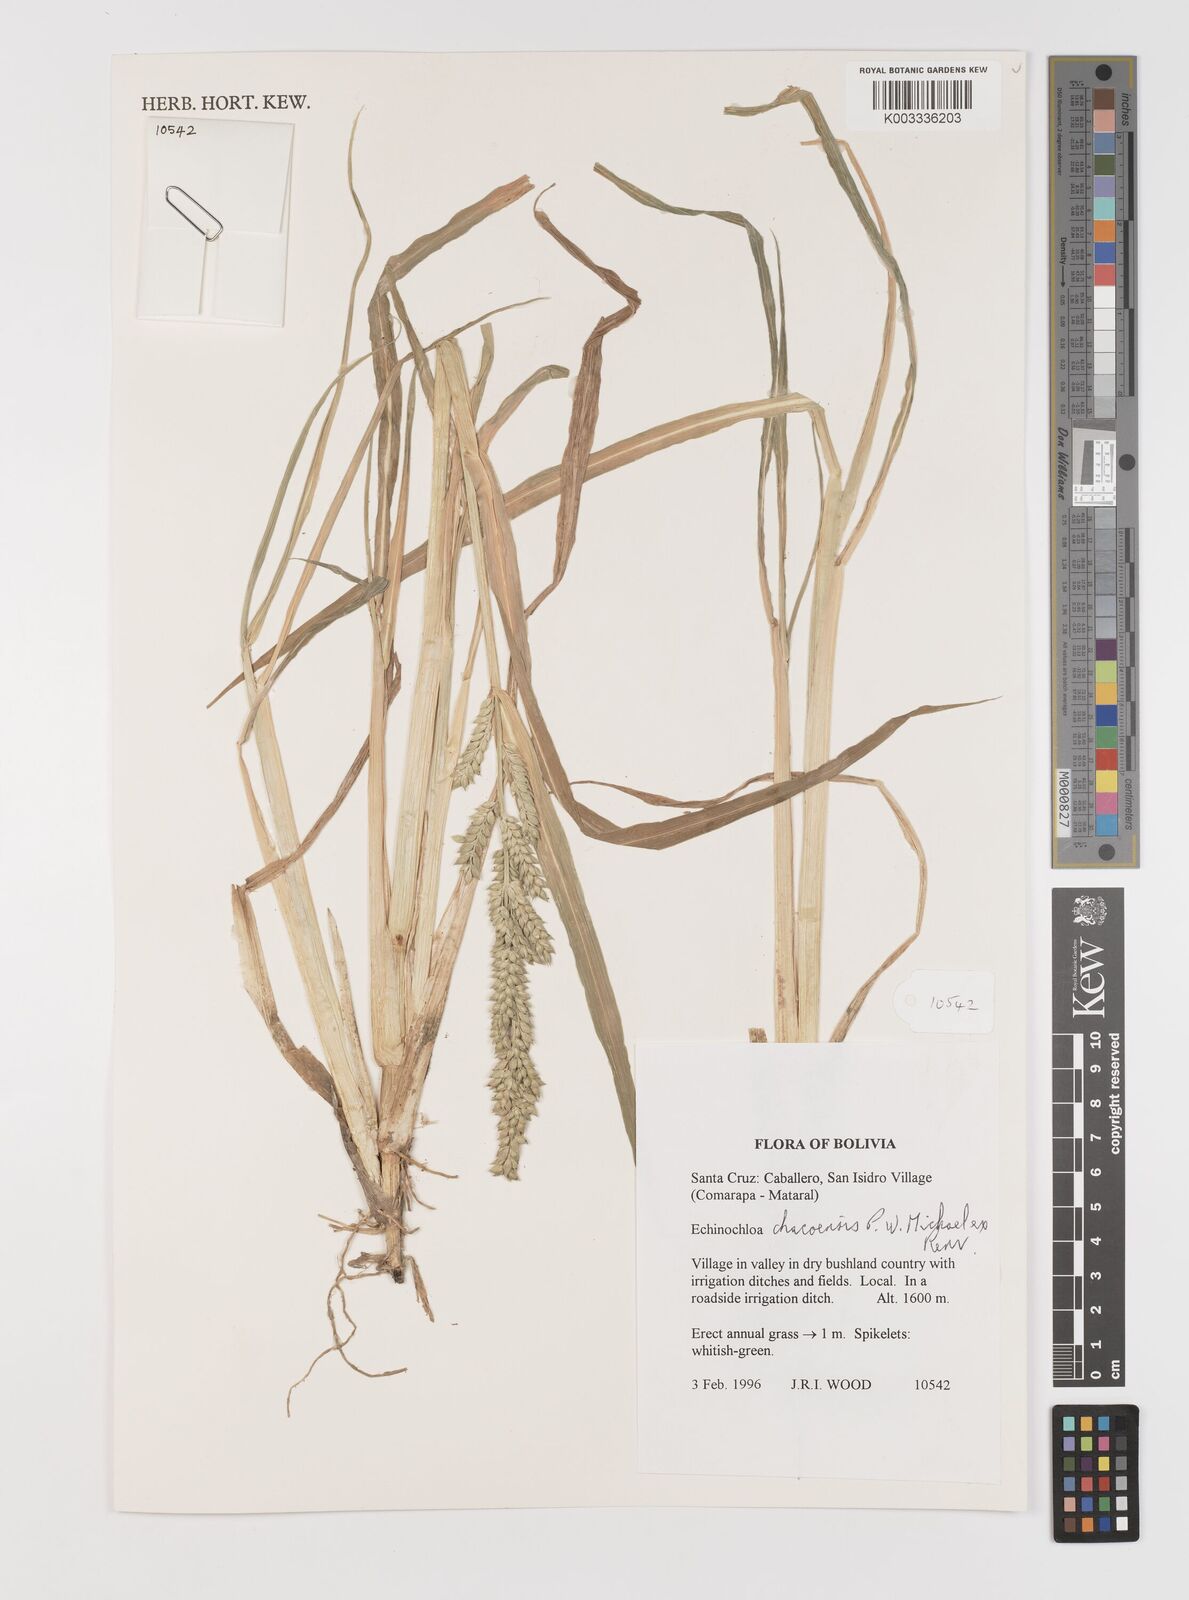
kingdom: Plantae
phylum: Tracheophyta
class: Liliopsida
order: Poales
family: Poaceae
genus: Echinochloa
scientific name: Echinochloa chacoensis
